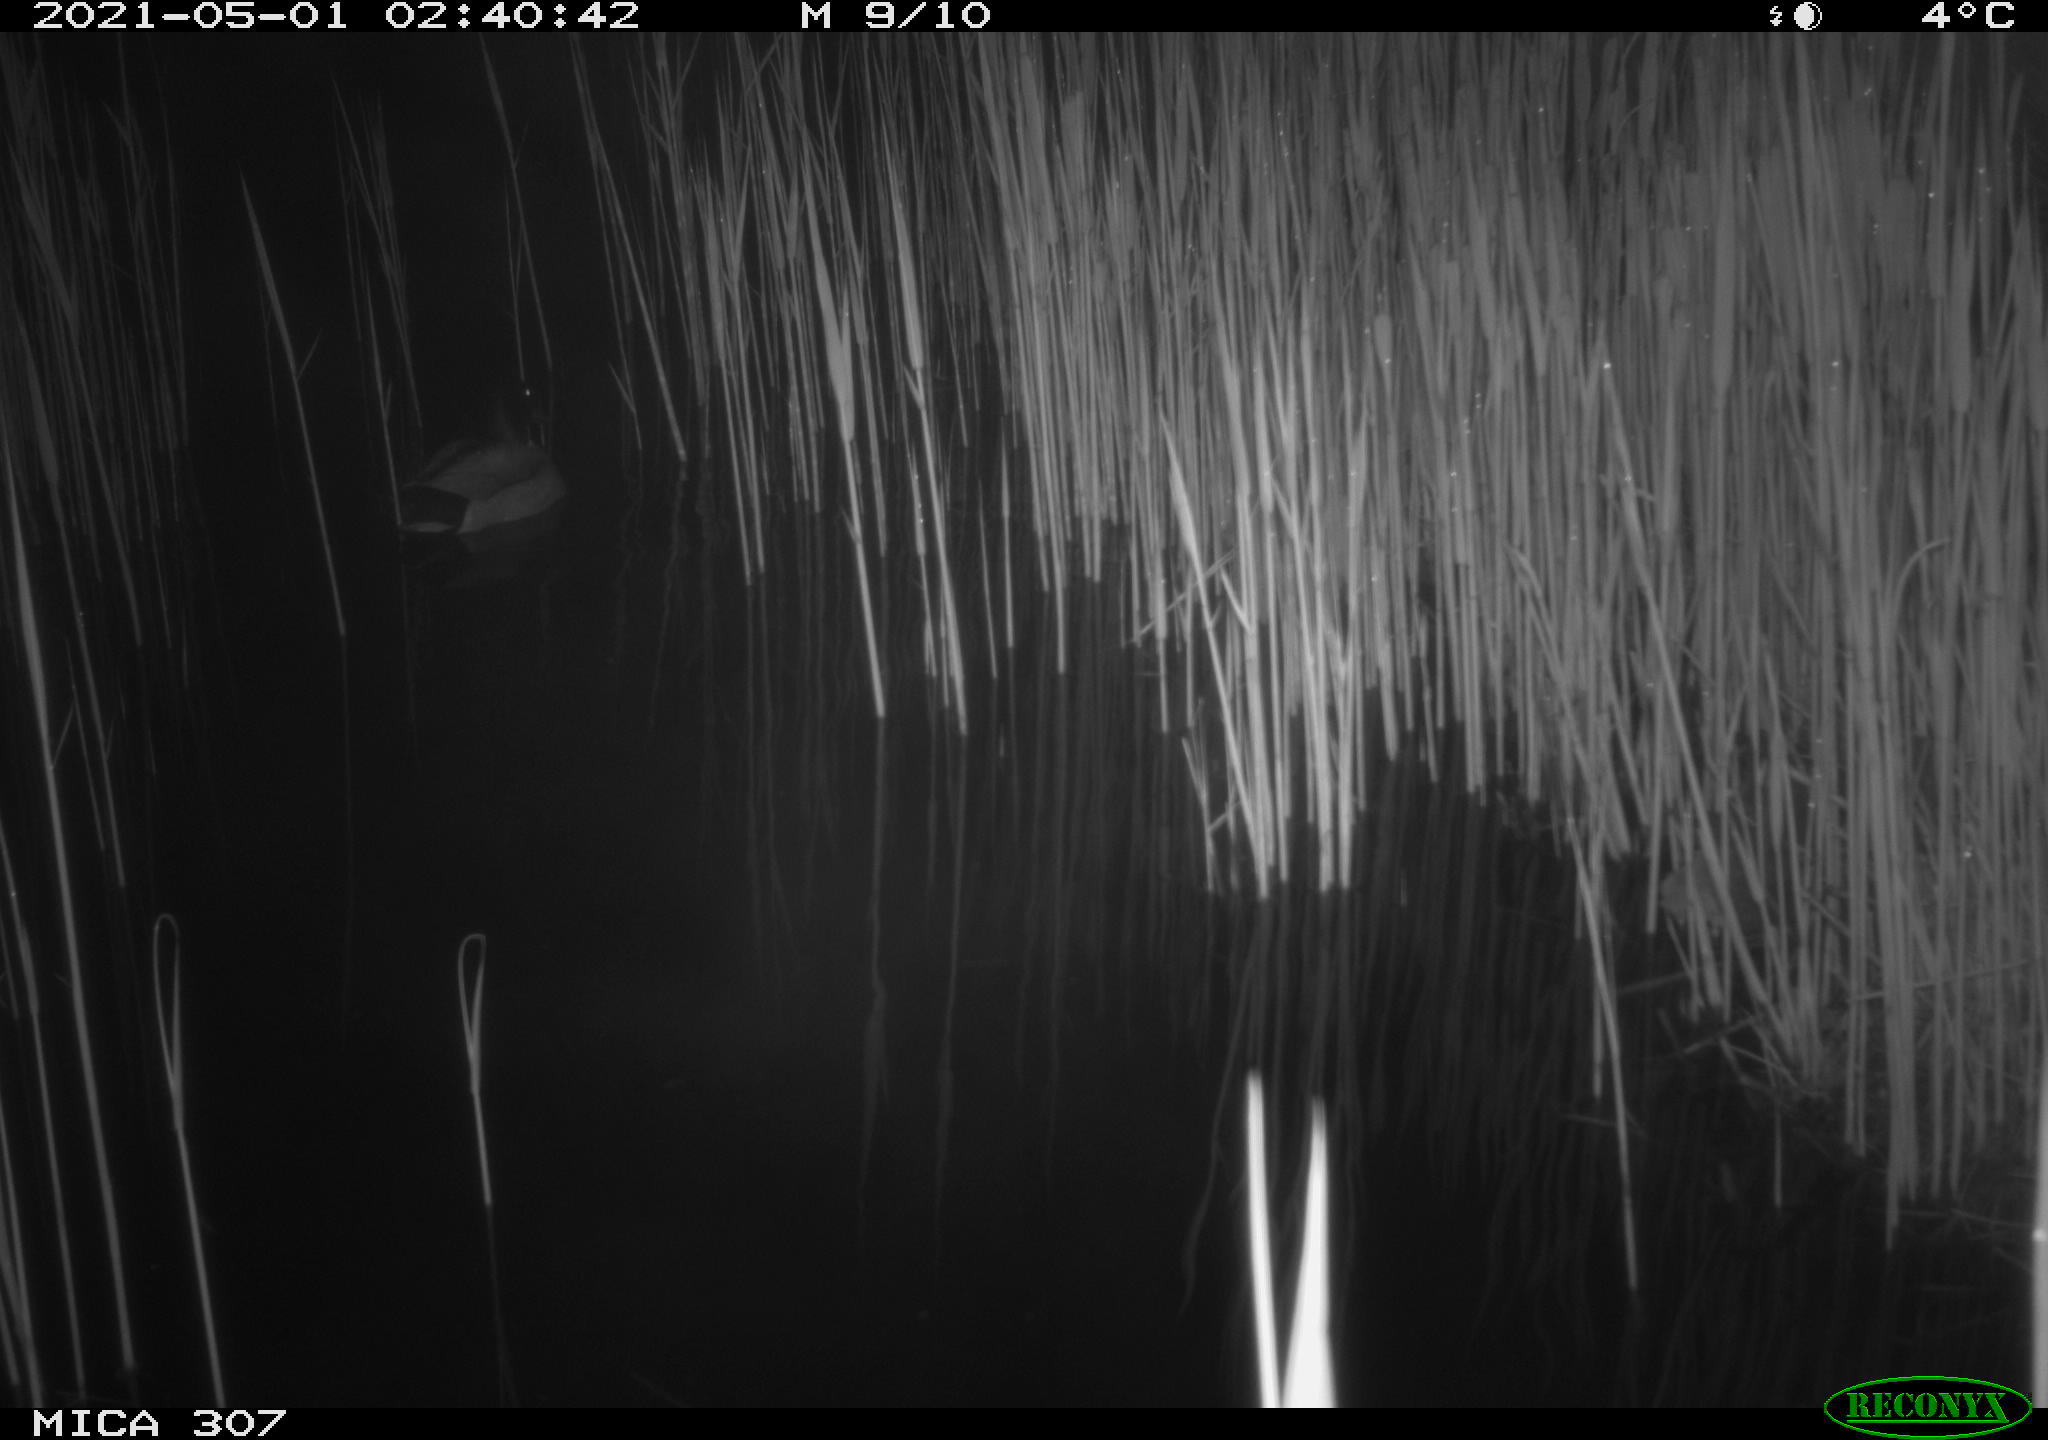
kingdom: Animalia
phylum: Chordata
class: Aves
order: Gruiformes
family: Rallidae
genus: Gallinula
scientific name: Gallinula chloropus
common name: Common moorhen
